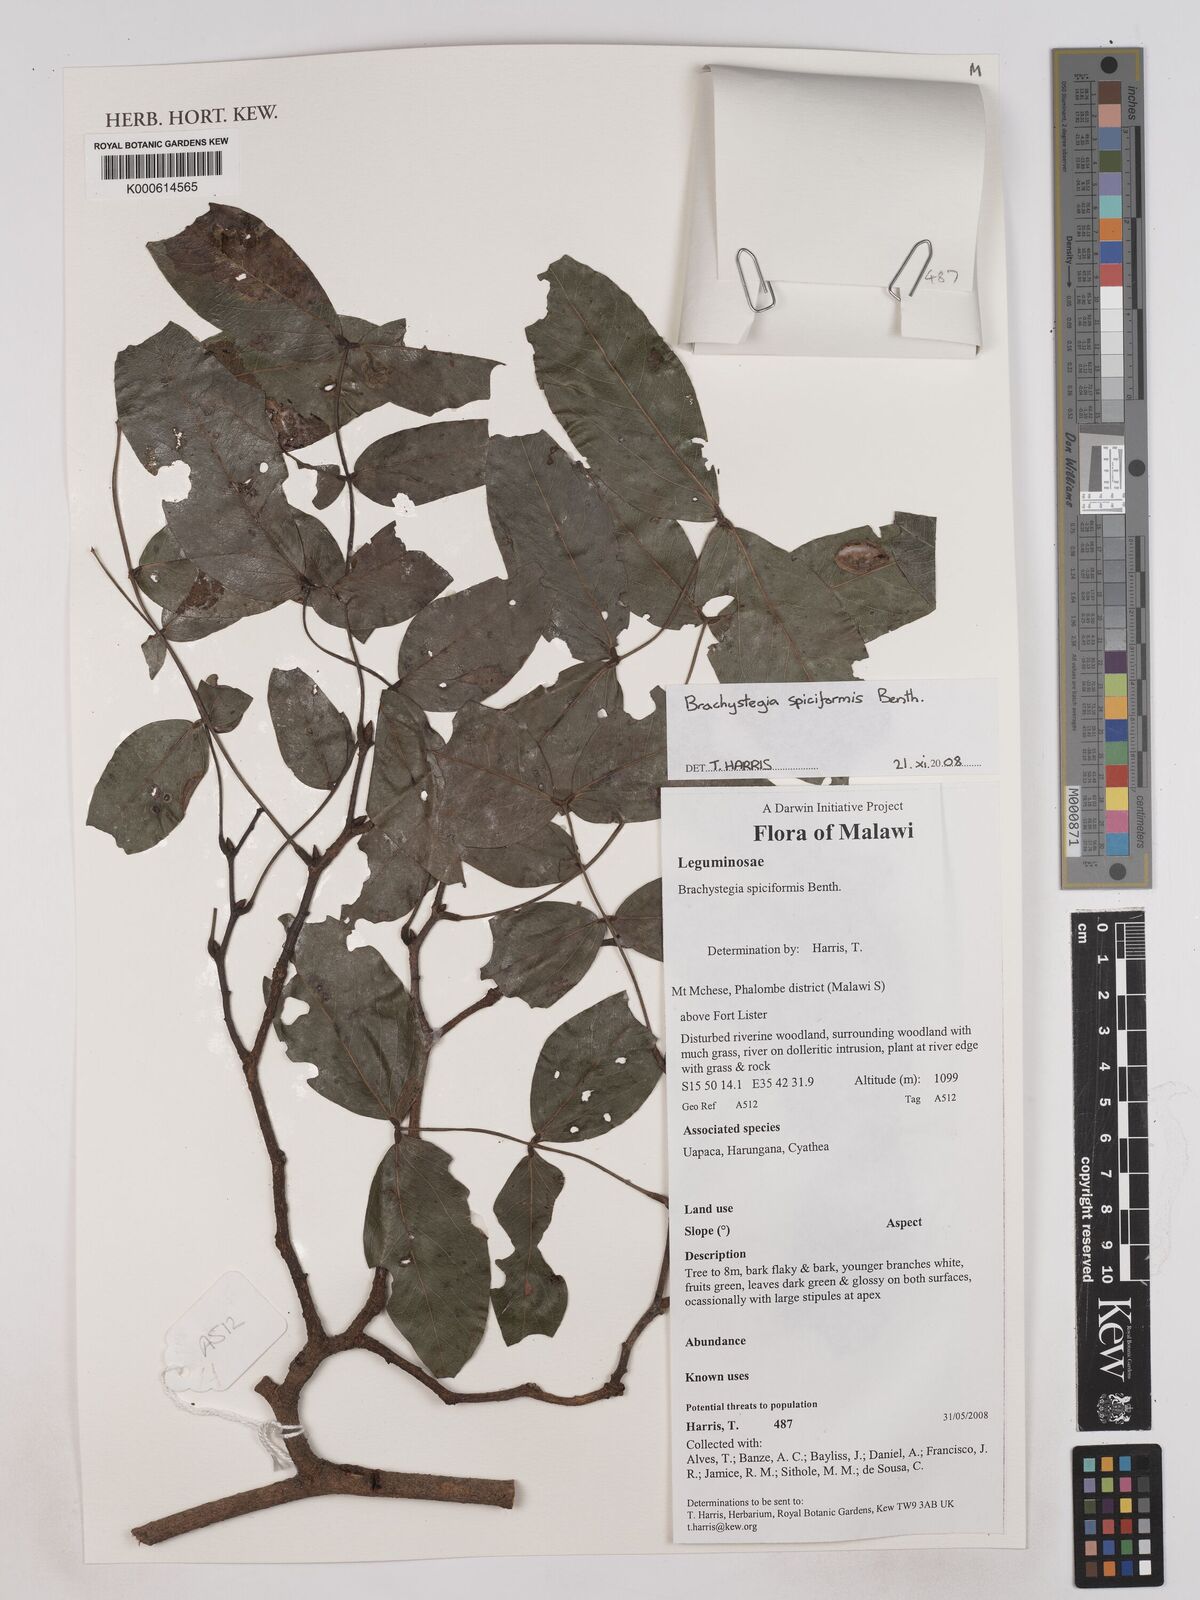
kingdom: Plantae
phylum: Tracheophyta
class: Magnoliopsida
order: Fabales
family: Fabaceae
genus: Brachystegia
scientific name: Brachystegia spiciformis
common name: Zebrawood
